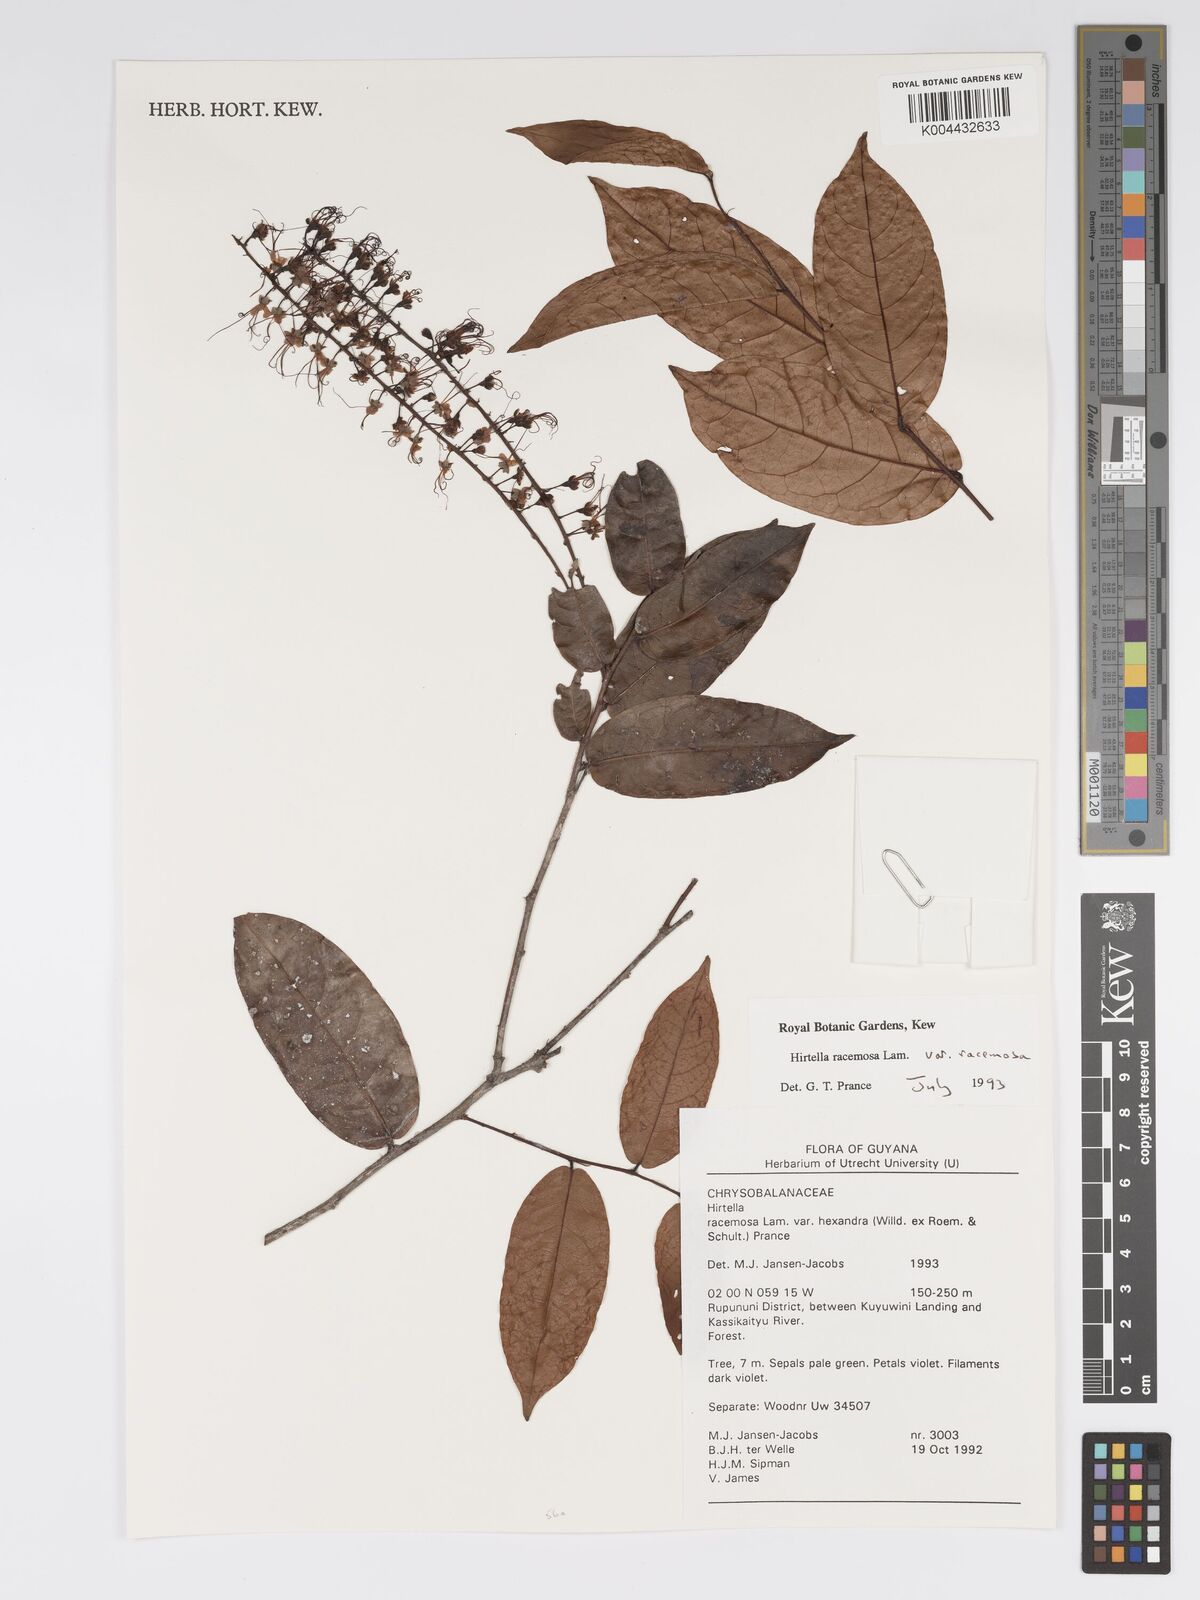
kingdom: Plantae
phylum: Tracheophyta
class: Magnoliopsida
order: Malpighiales
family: Chrysobalanaceae
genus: Hirtella
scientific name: Hirtella racemosa
